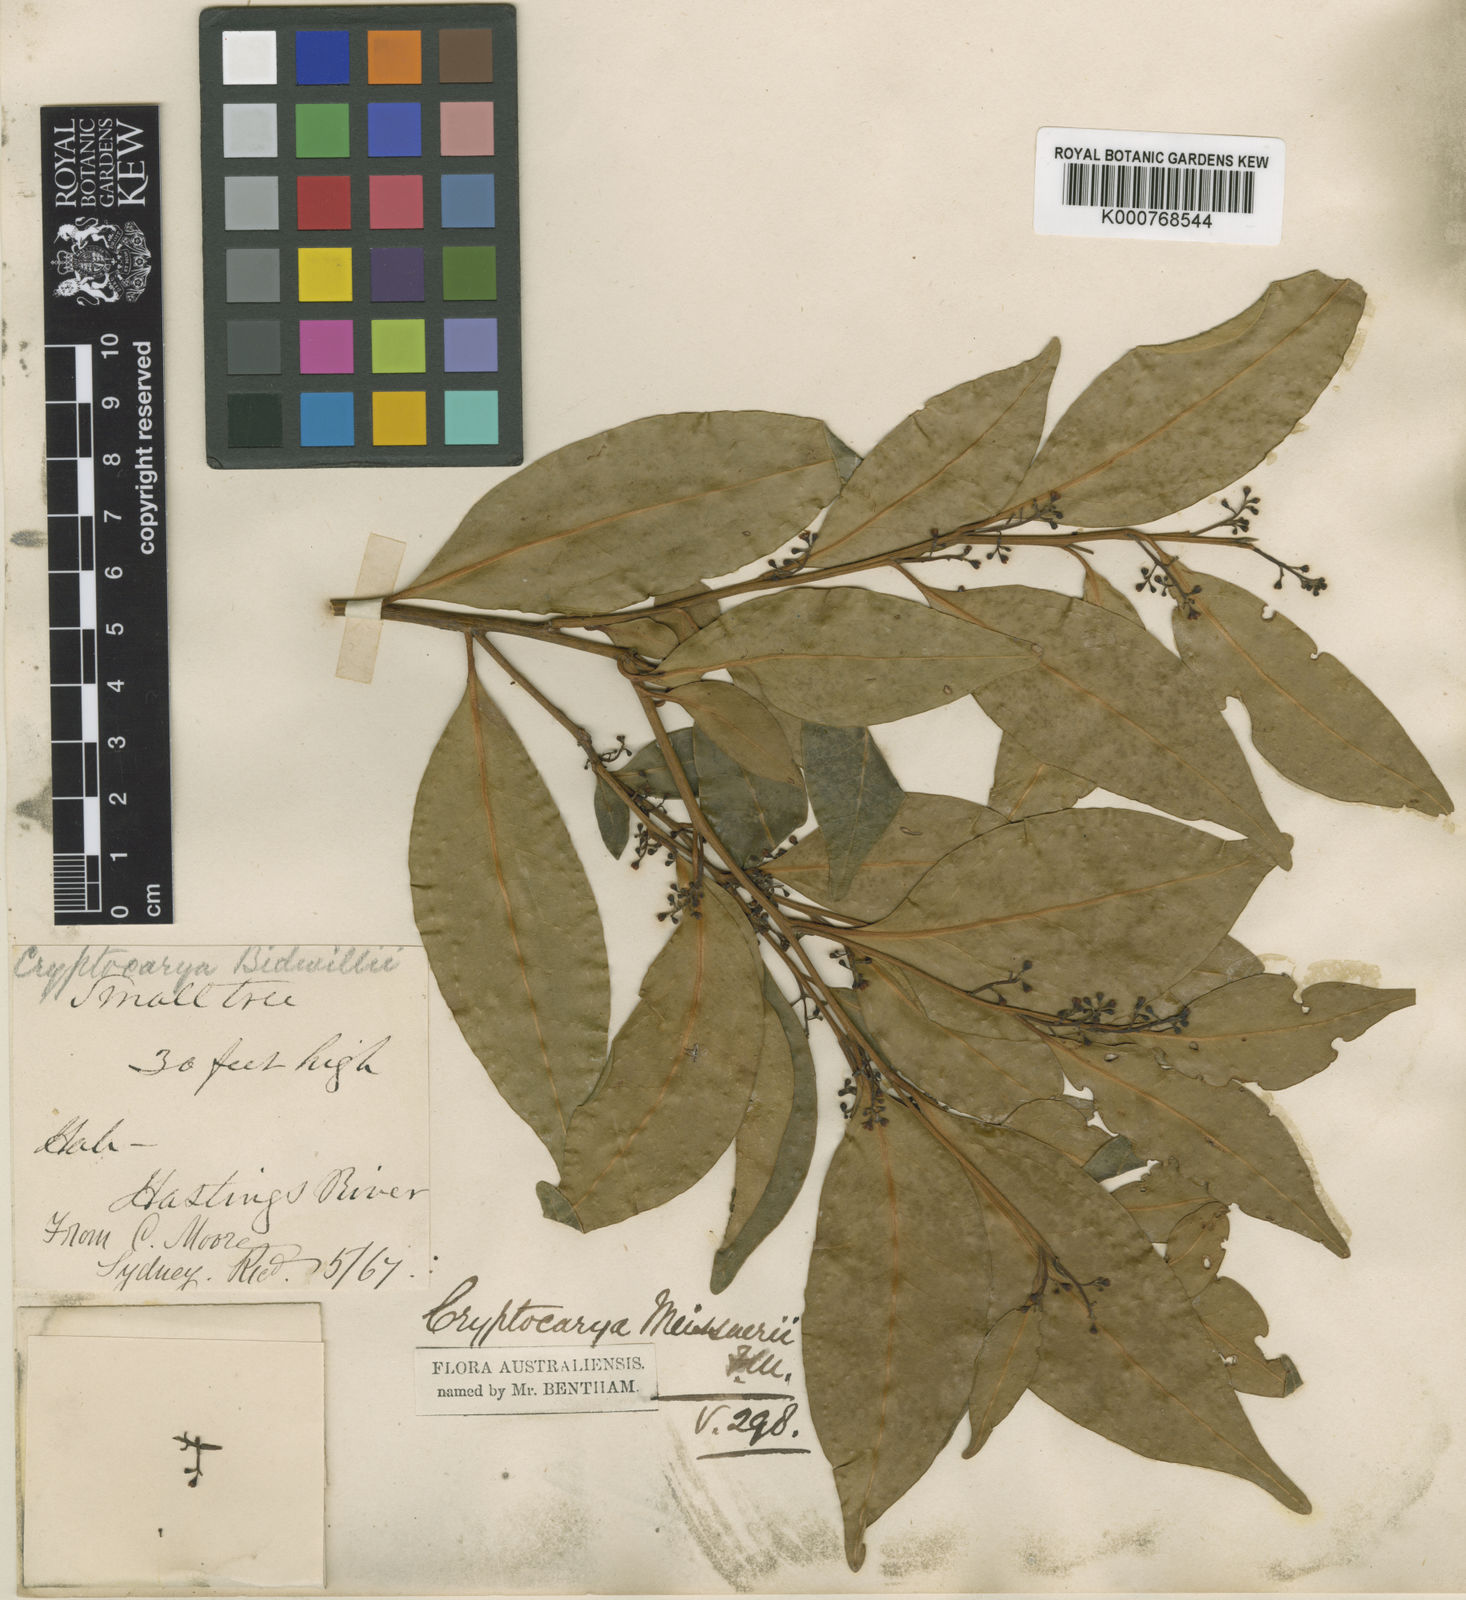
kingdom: Plantae
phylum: Tracheophyta
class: Magnoliopsida
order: Laurales
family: Lauraceae
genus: Cryptocarya
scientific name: Cryptocarya meisneriana
